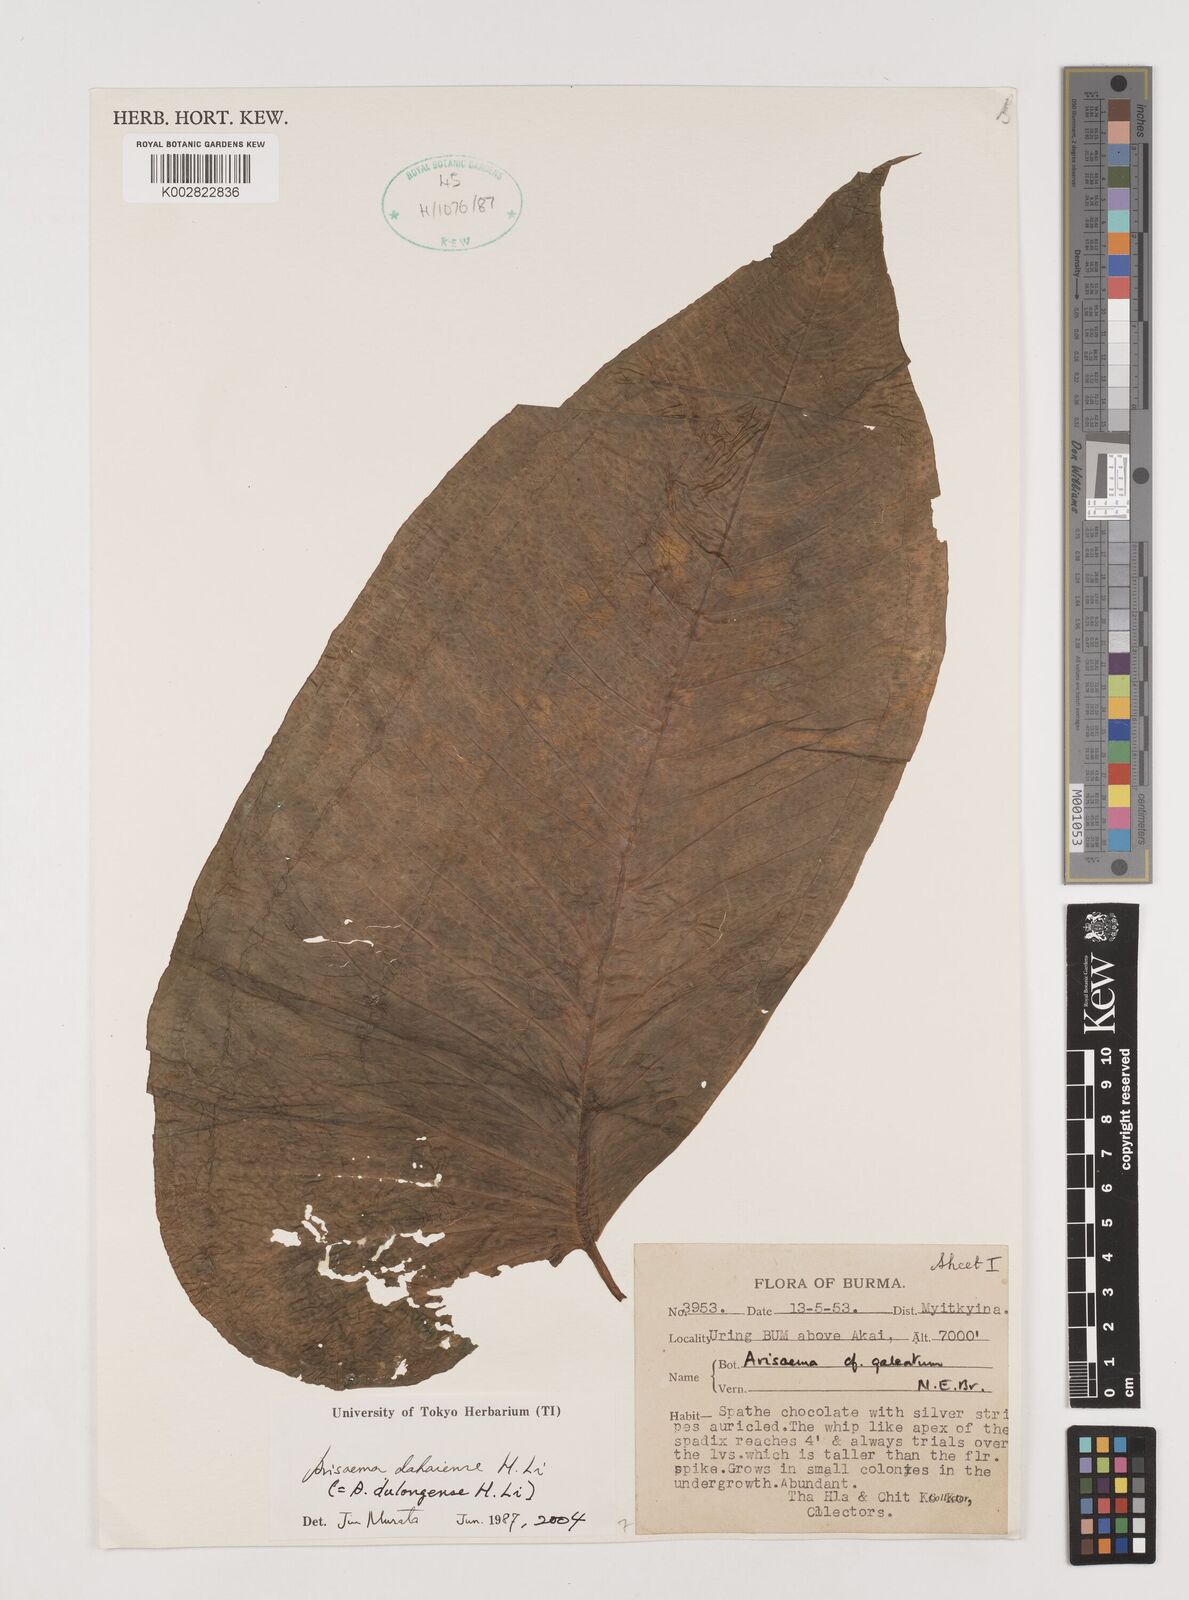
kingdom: Plantae
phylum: Tracheophyta
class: Liliopsida
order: Alismatales
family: Araceae
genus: Arisaema
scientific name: Arisaema dahaiense
